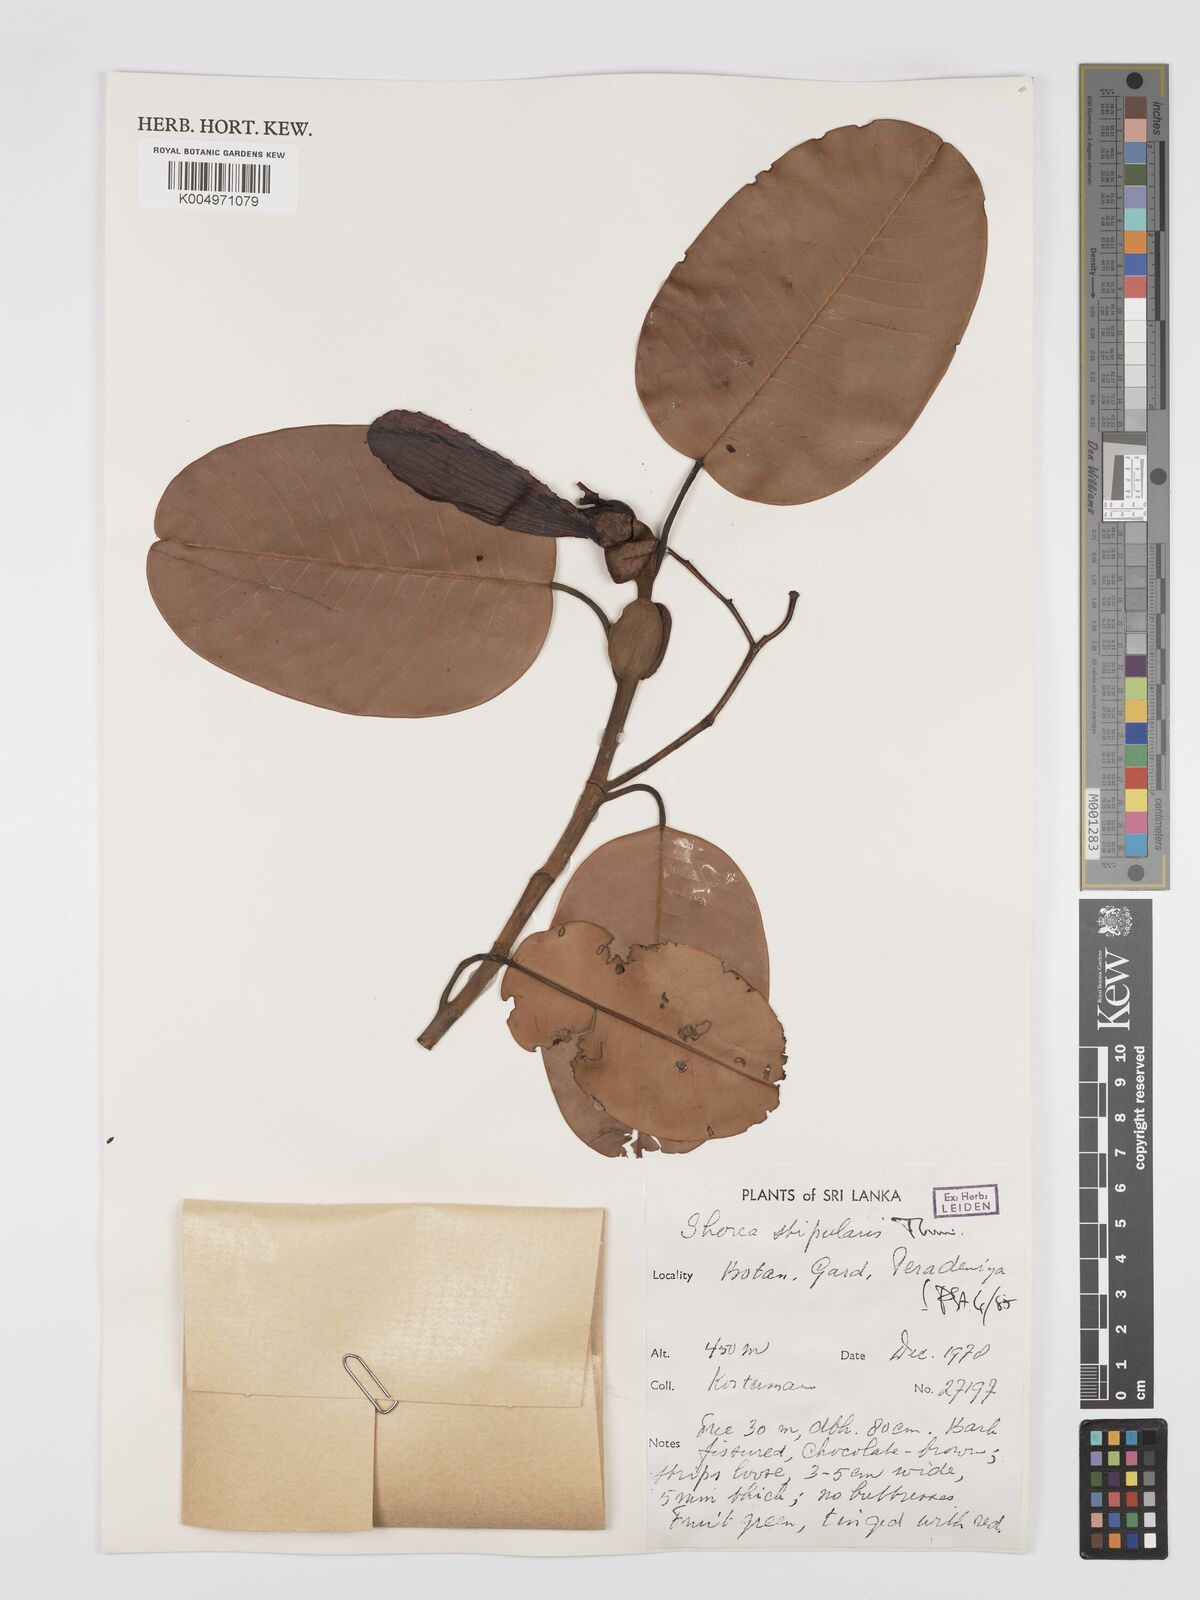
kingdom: Plantae
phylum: Tracheophyta
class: Magnoliopsida
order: Malvales
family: Dipterocarpaceae
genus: Anthoshorea
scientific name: Anthoshorea stipularis
